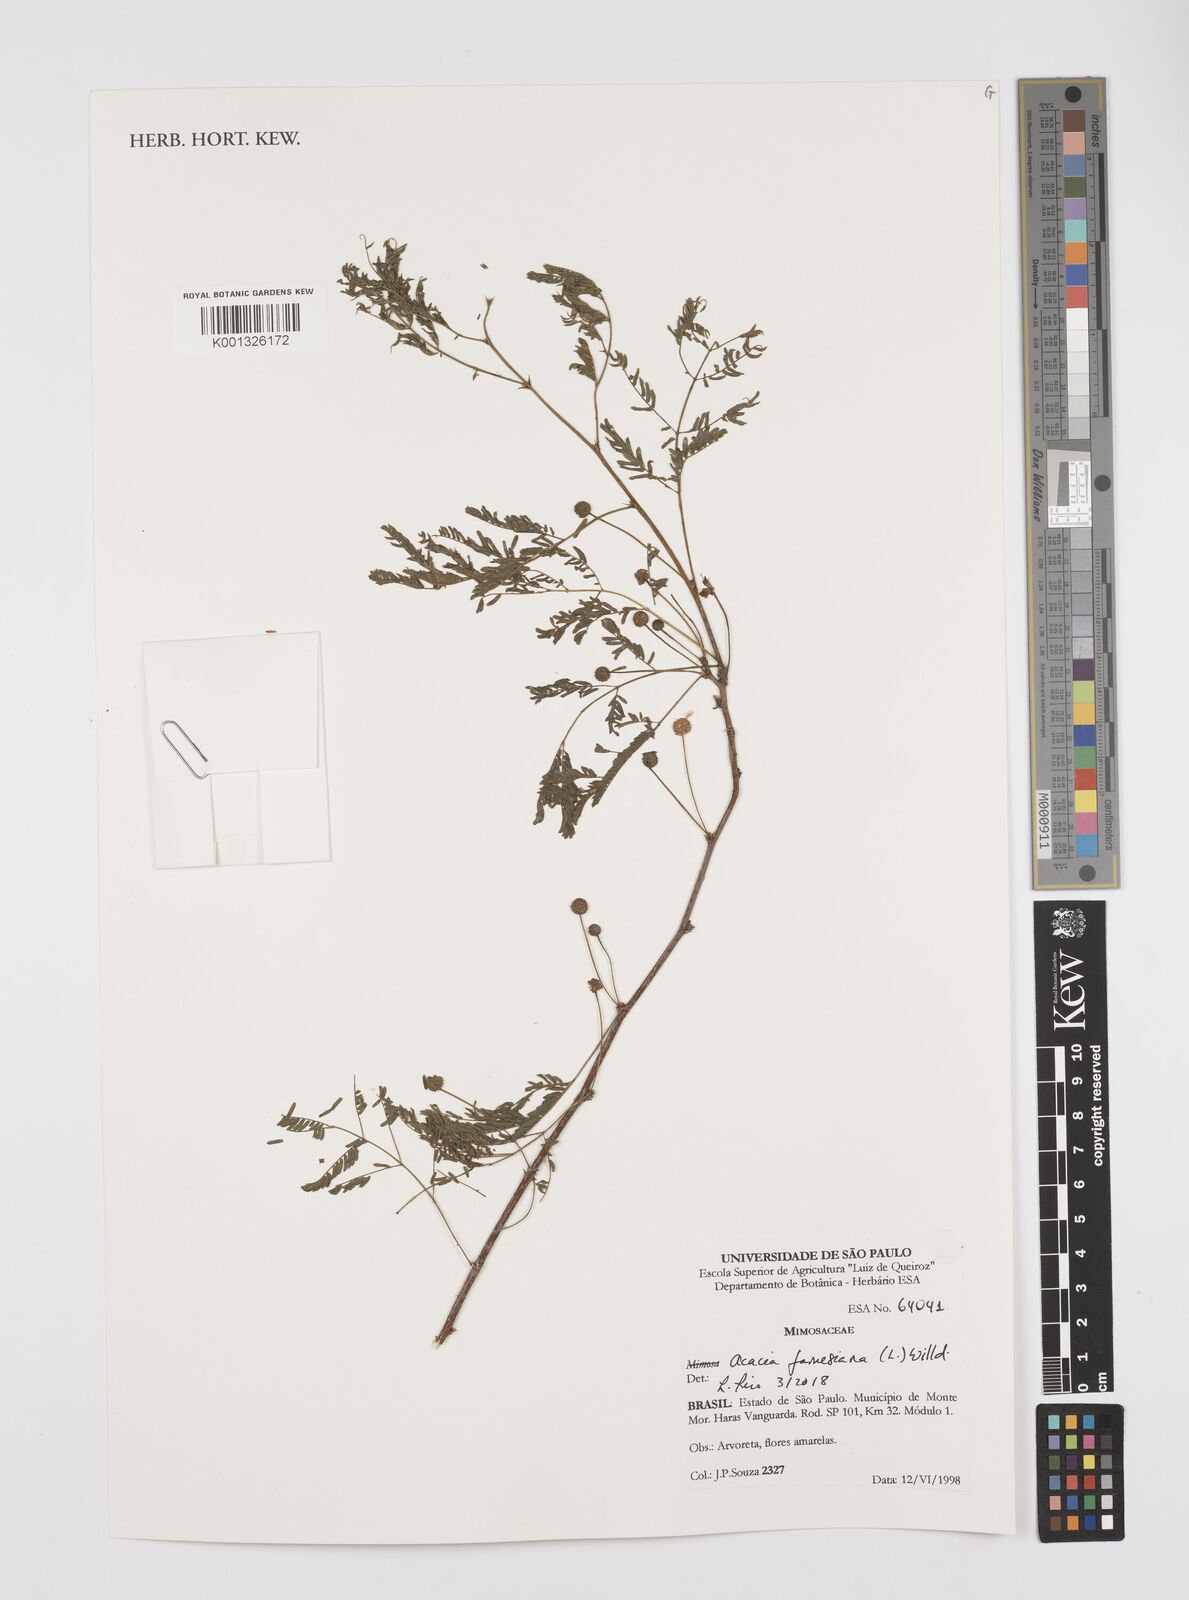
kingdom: Plantae
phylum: Tracheophyta
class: Magnoliopsida
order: Fabales
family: Fabaceae
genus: Vachellia
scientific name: Vachellia farnesiana
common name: Sweet acacia
